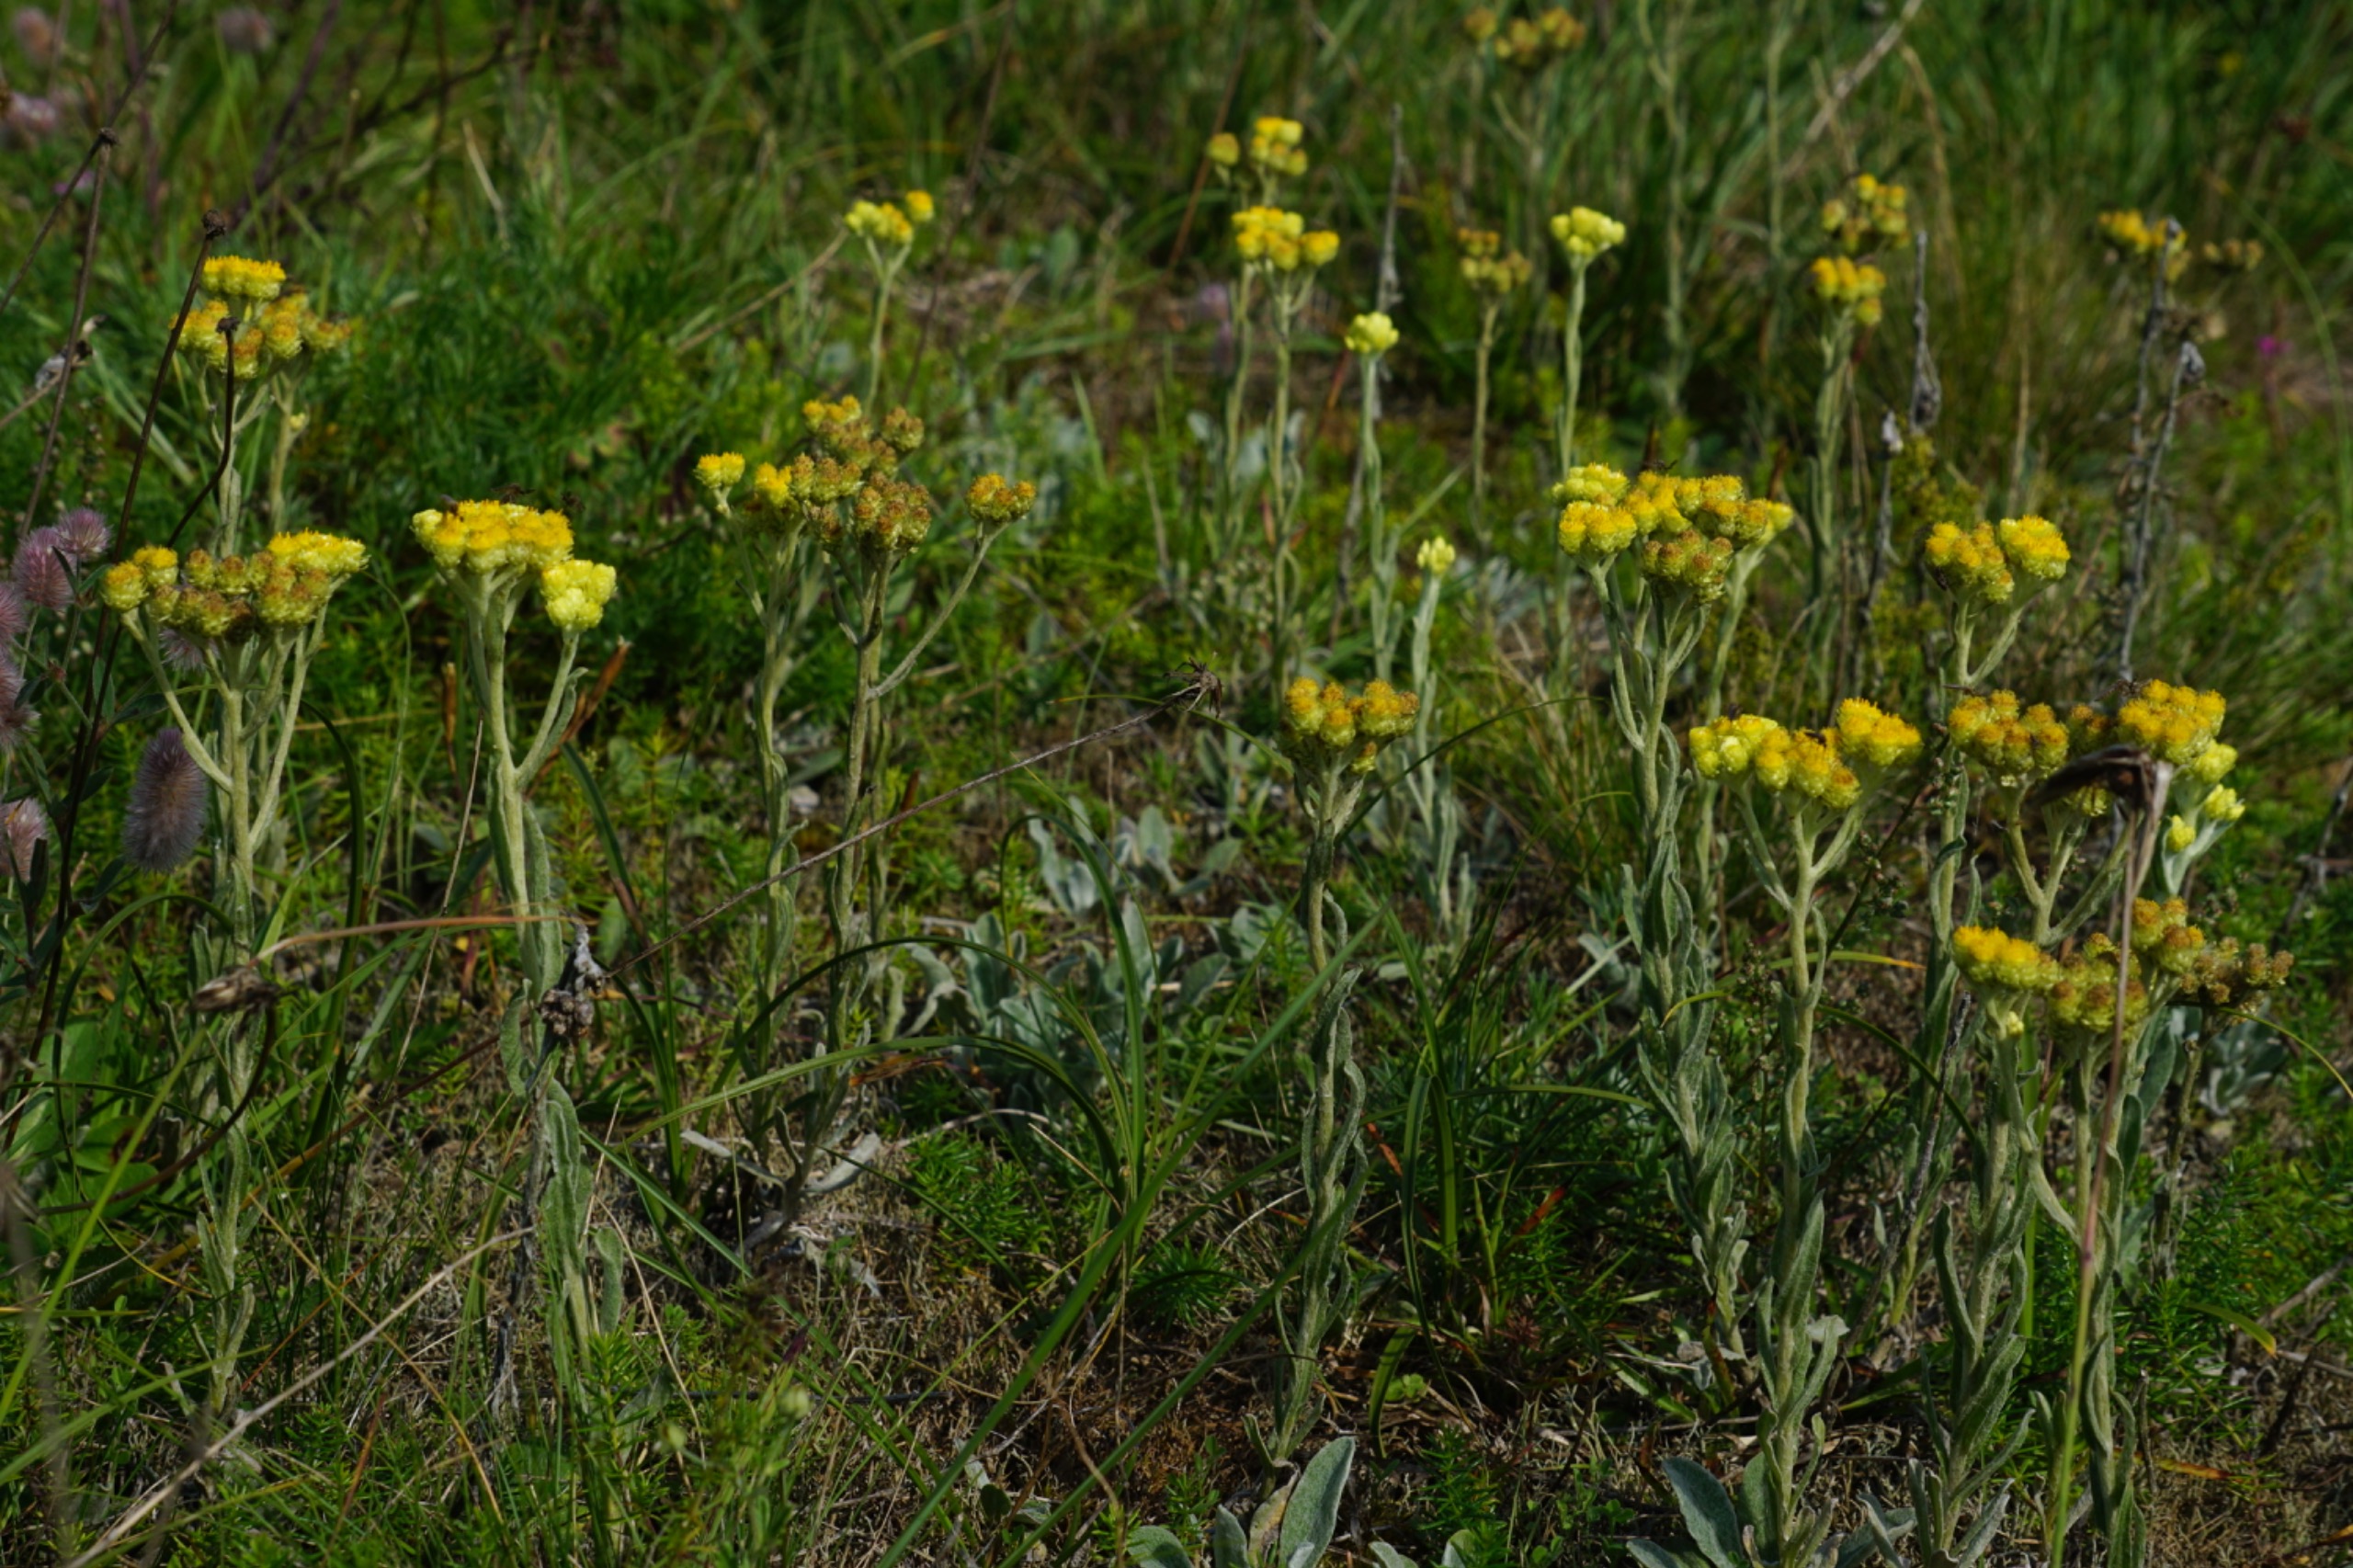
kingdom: Plantae
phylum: Tracheophyta
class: Magnoliopsida
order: Asterales
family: Asteraceae
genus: Helichrysum
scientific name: Helichrysum arenarium
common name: Gul evighedsblomst
